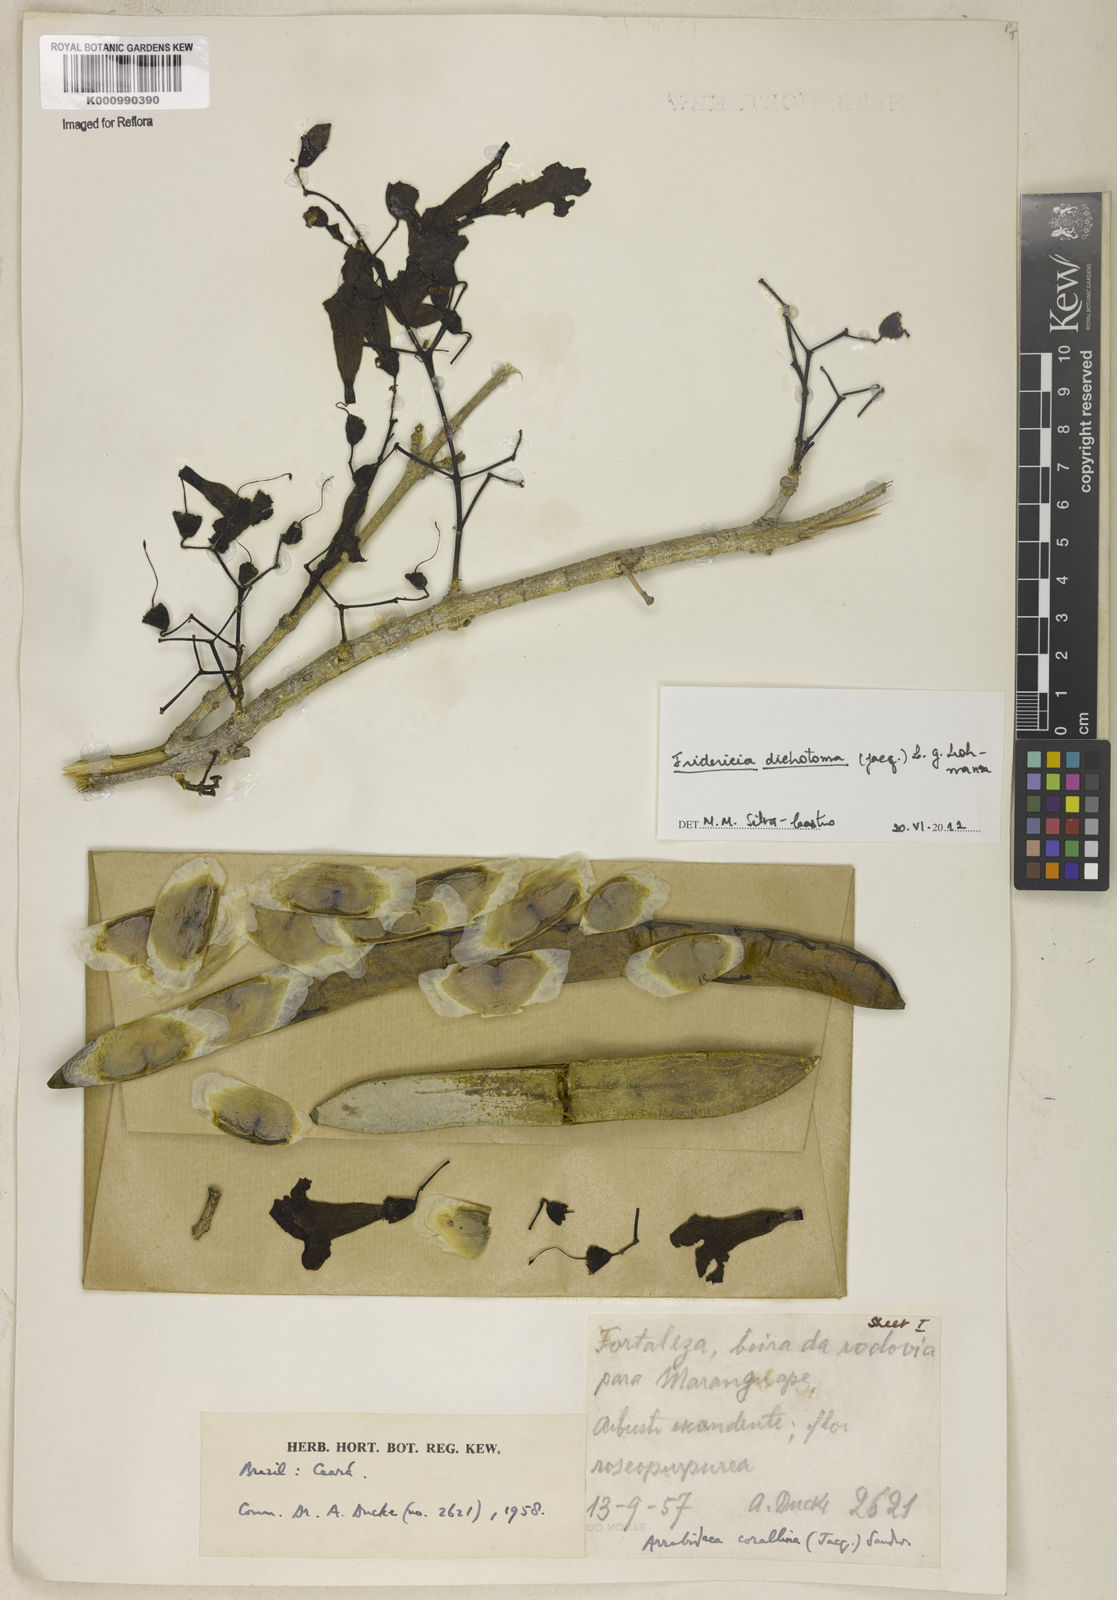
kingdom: Plantae
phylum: Tracheophyta
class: Magnoliopsida
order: Lamiales
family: Bignoniaceae
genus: Tanaecium
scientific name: Tanaecium dichotomum
